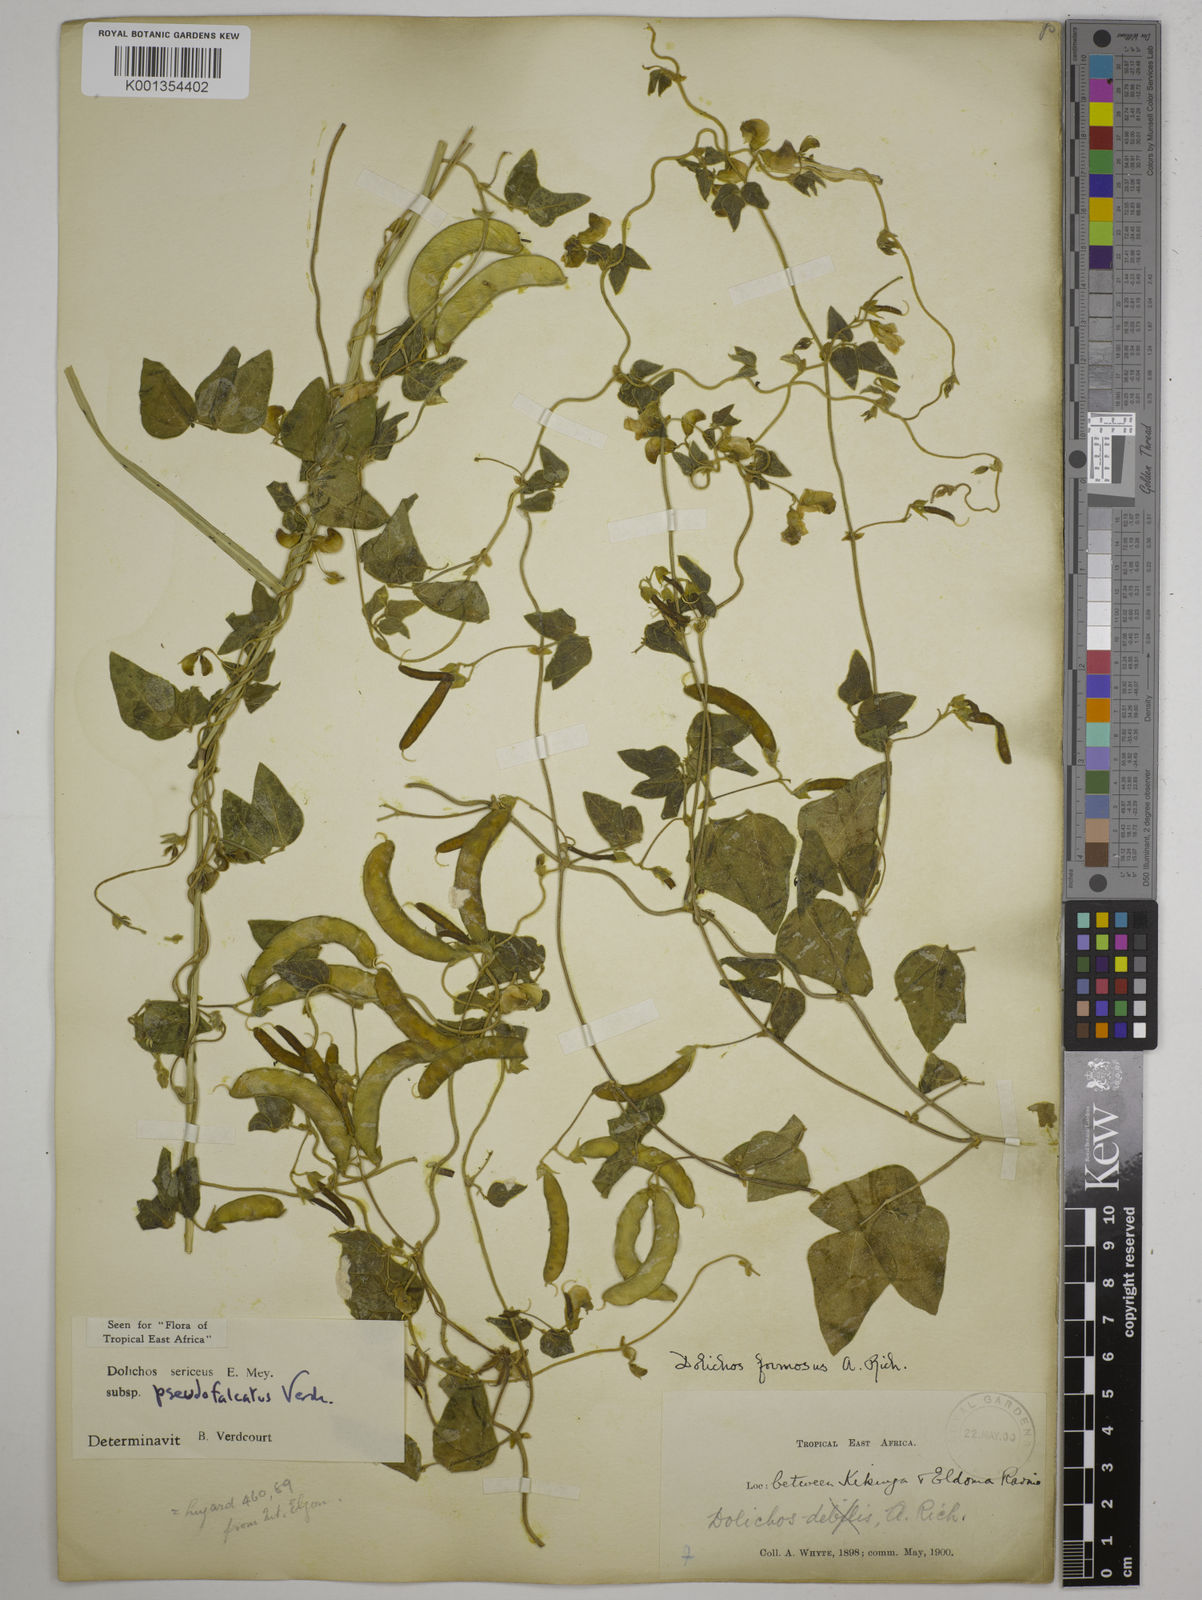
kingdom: Plantae
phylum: Tracheophyta
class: Magnoliopsida
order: Fabales
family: Fabaceae
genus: Dolichos
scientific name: Dolichos
